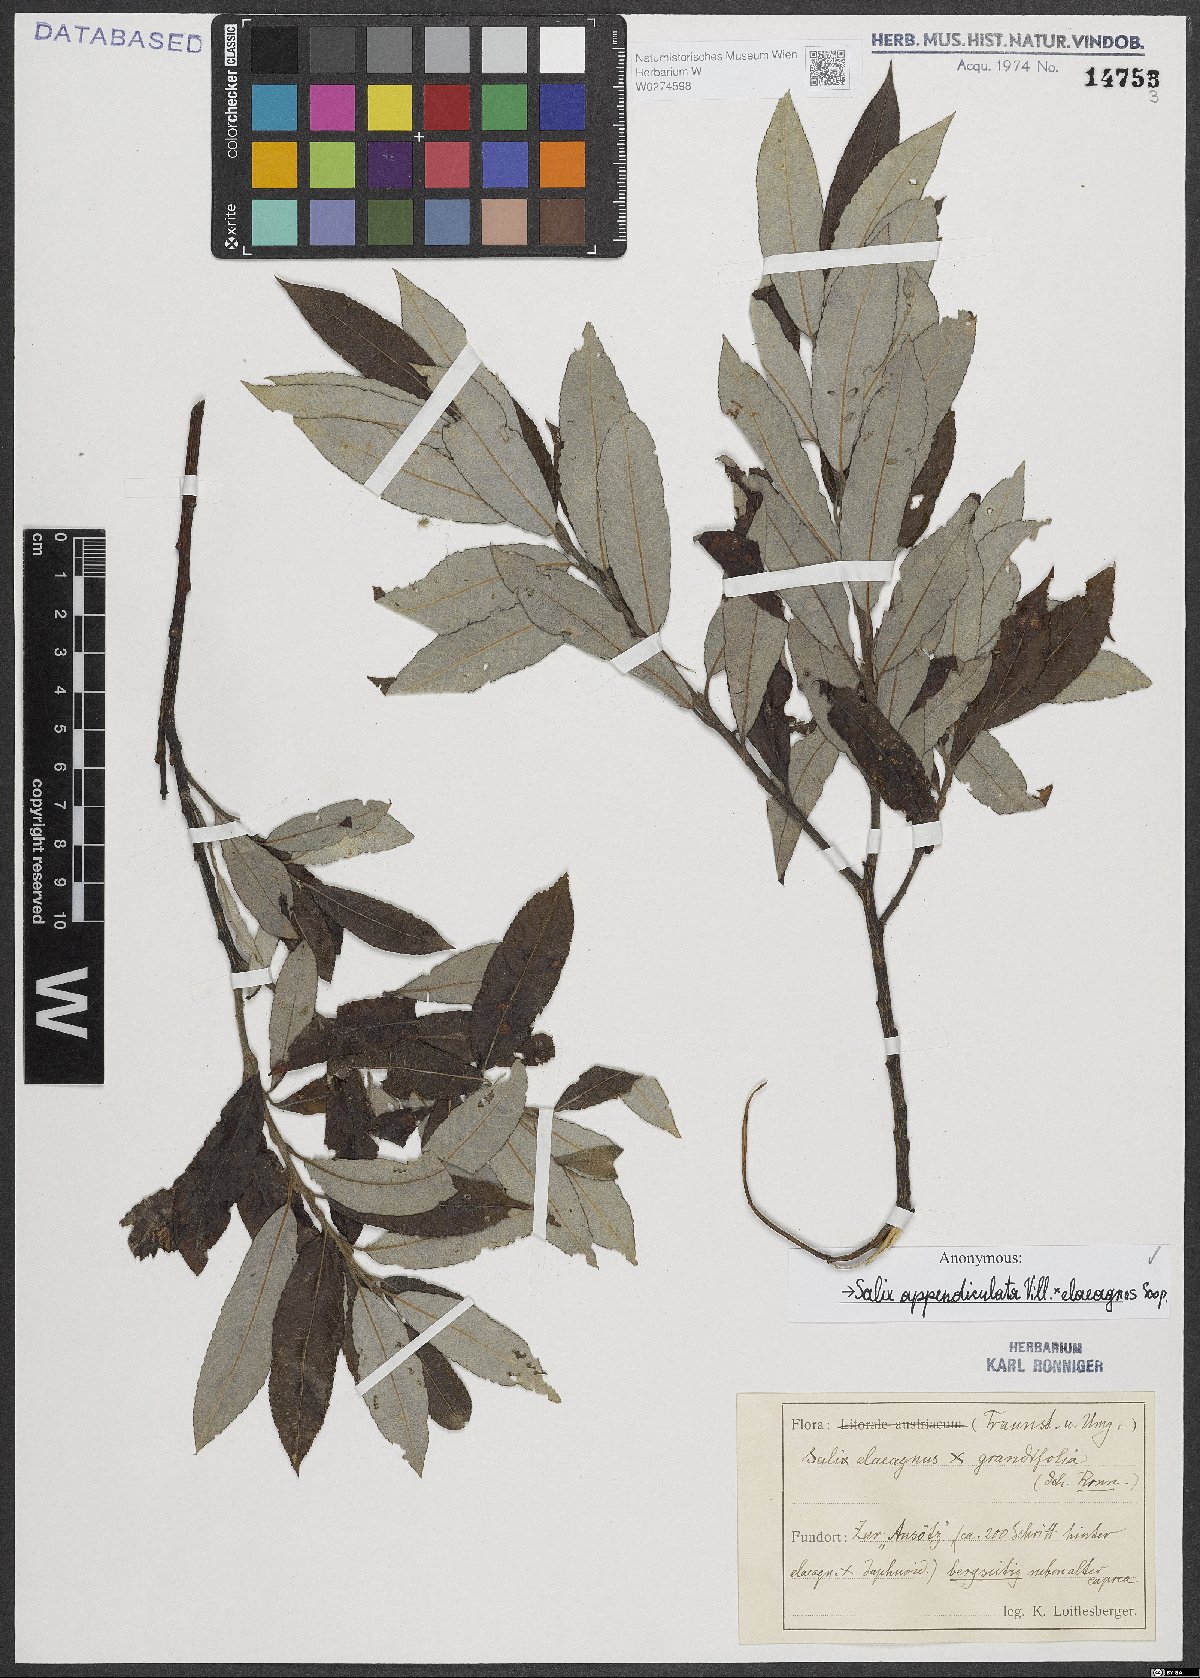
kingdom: Plantae
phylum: Tracheophyta
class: Magnoliopsida
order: Malpighiales
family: Salicaceae
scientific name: Salicaceae
